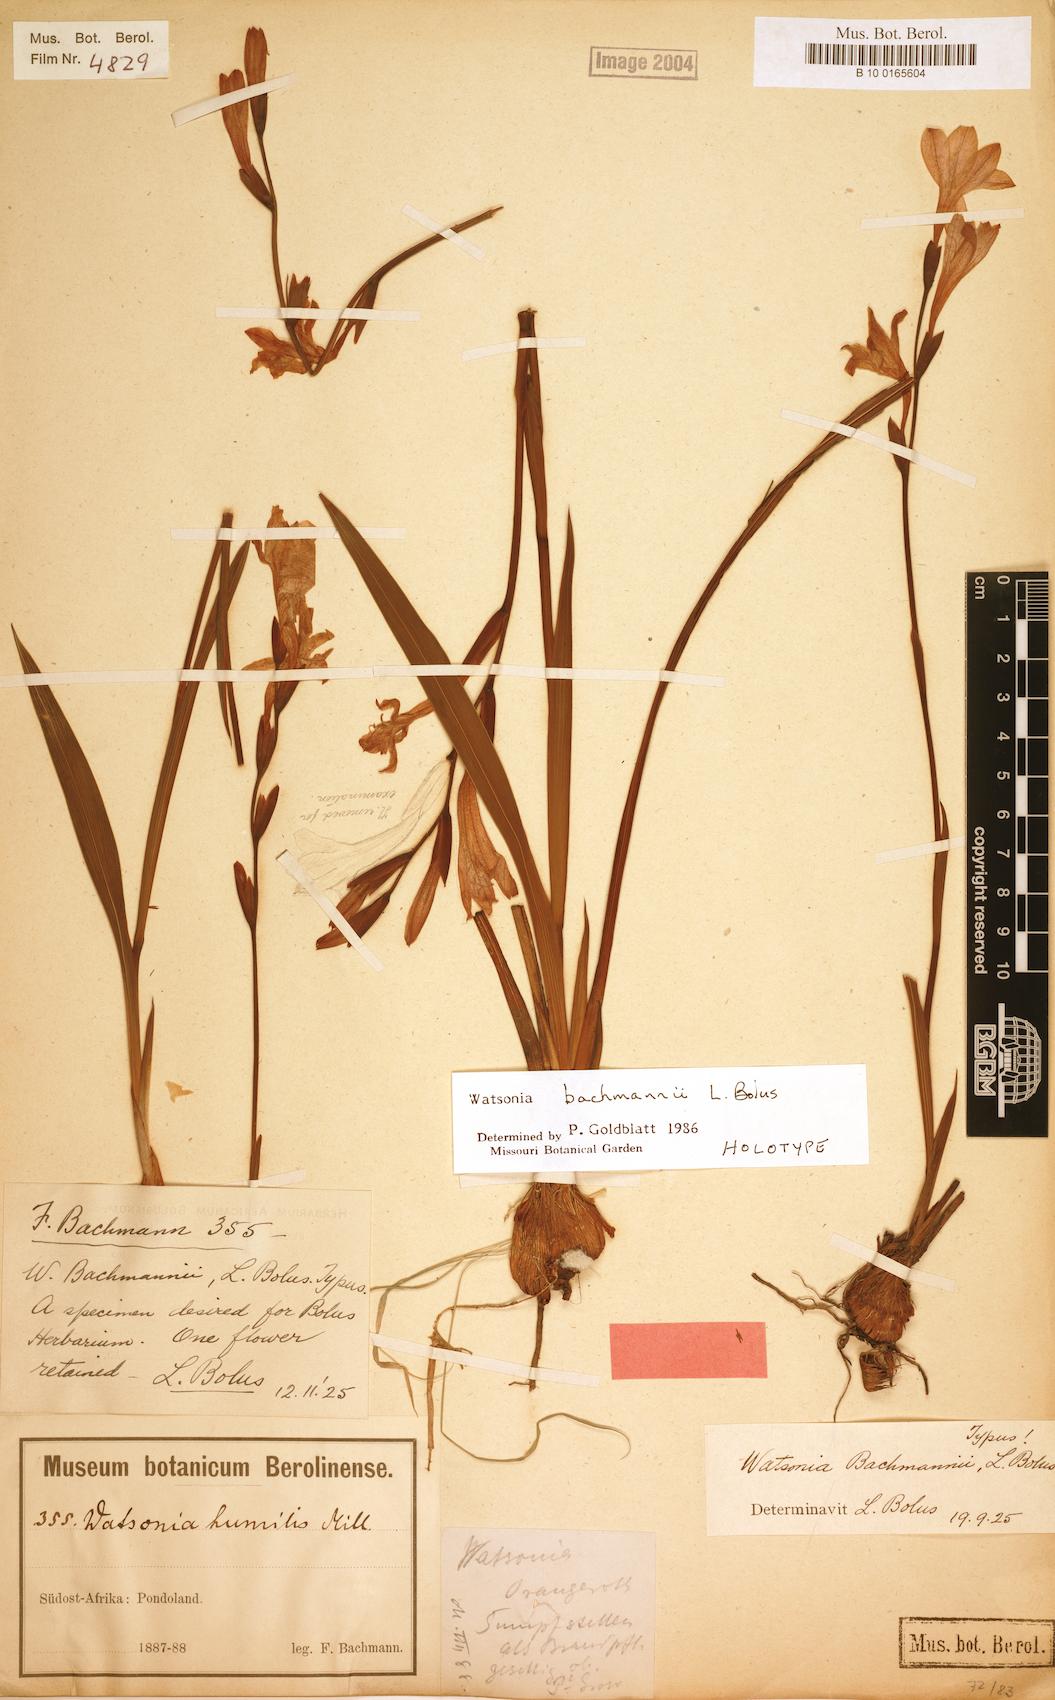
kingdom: Plantae
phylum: Tracheophyta
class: Liliopsida
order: Asparagales
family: Iridaceae
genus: Watsonia
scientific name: Watsonia bachmannii
